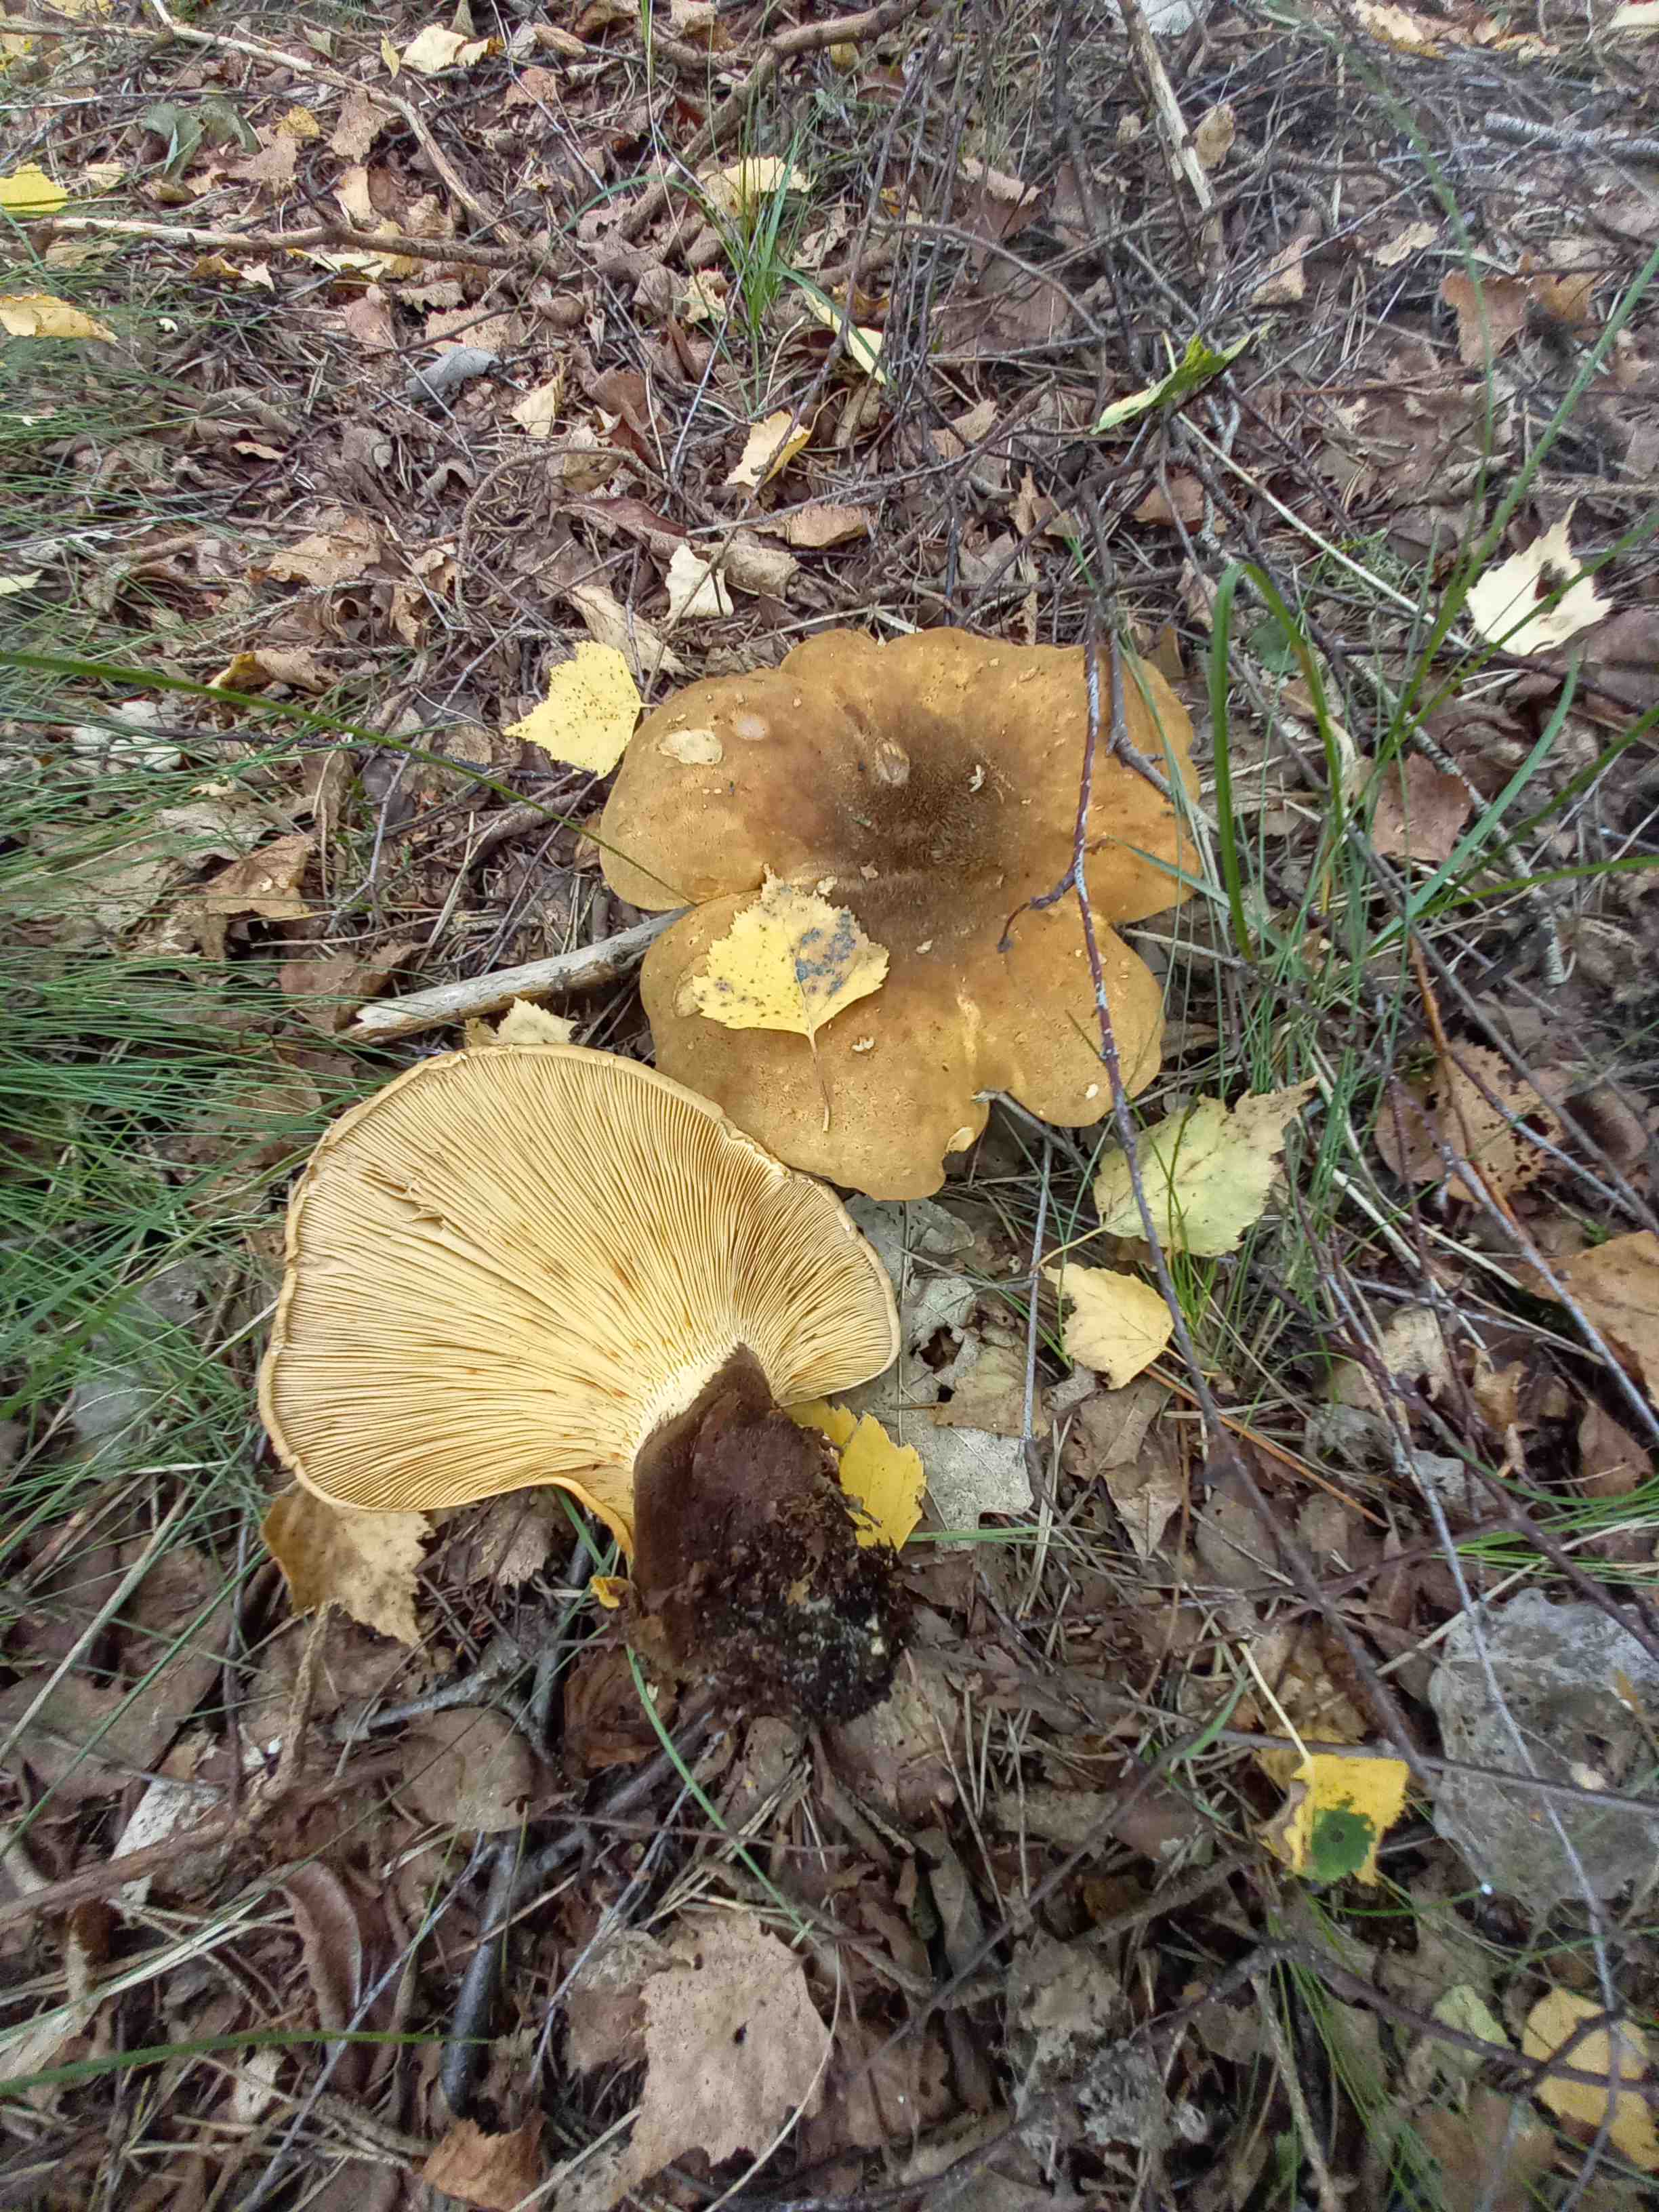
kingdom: Fungi
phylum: Basidiomycota
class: Agaricomycetes
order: Boletales
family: Tapinellaceae
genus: Tapinella
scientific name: Tapinella atrotomentosa
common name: sortfiltet viftesvamp
